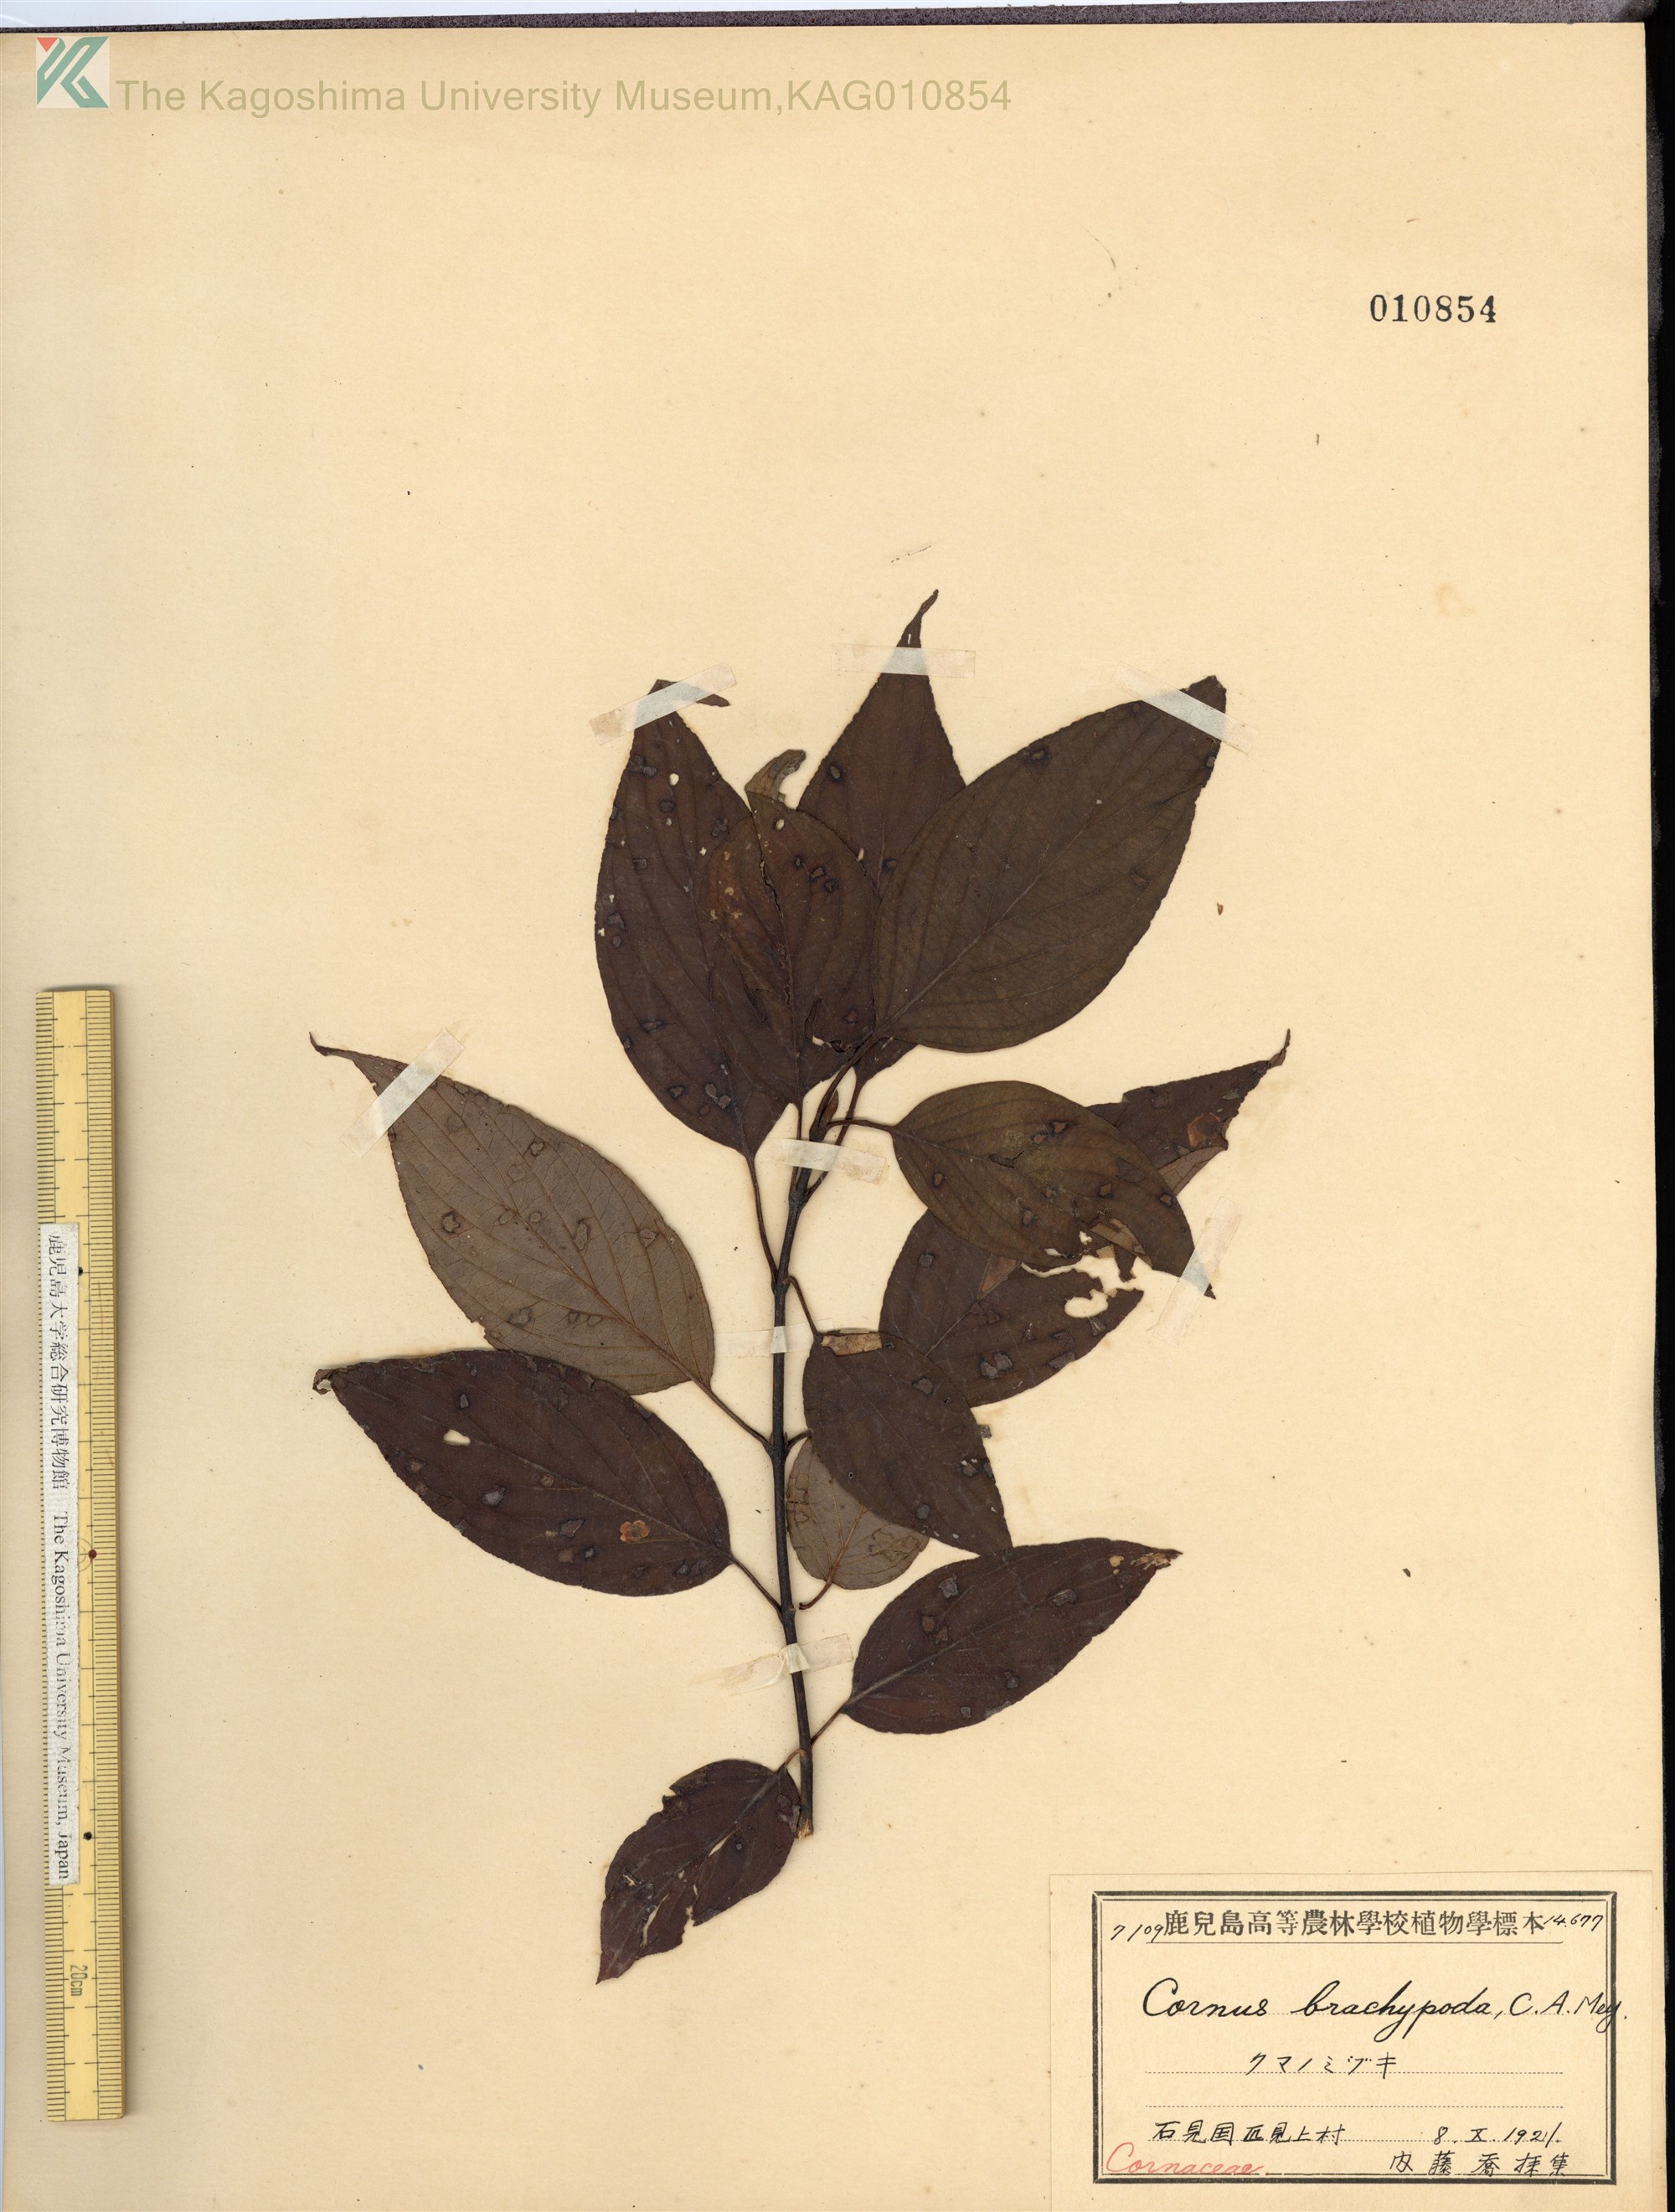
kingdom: Plantae
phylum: Tracheophyta
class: Magnoliopsida
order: Cornales
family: Cornaceae
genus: Cornus
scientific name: Cornus macrophylla
